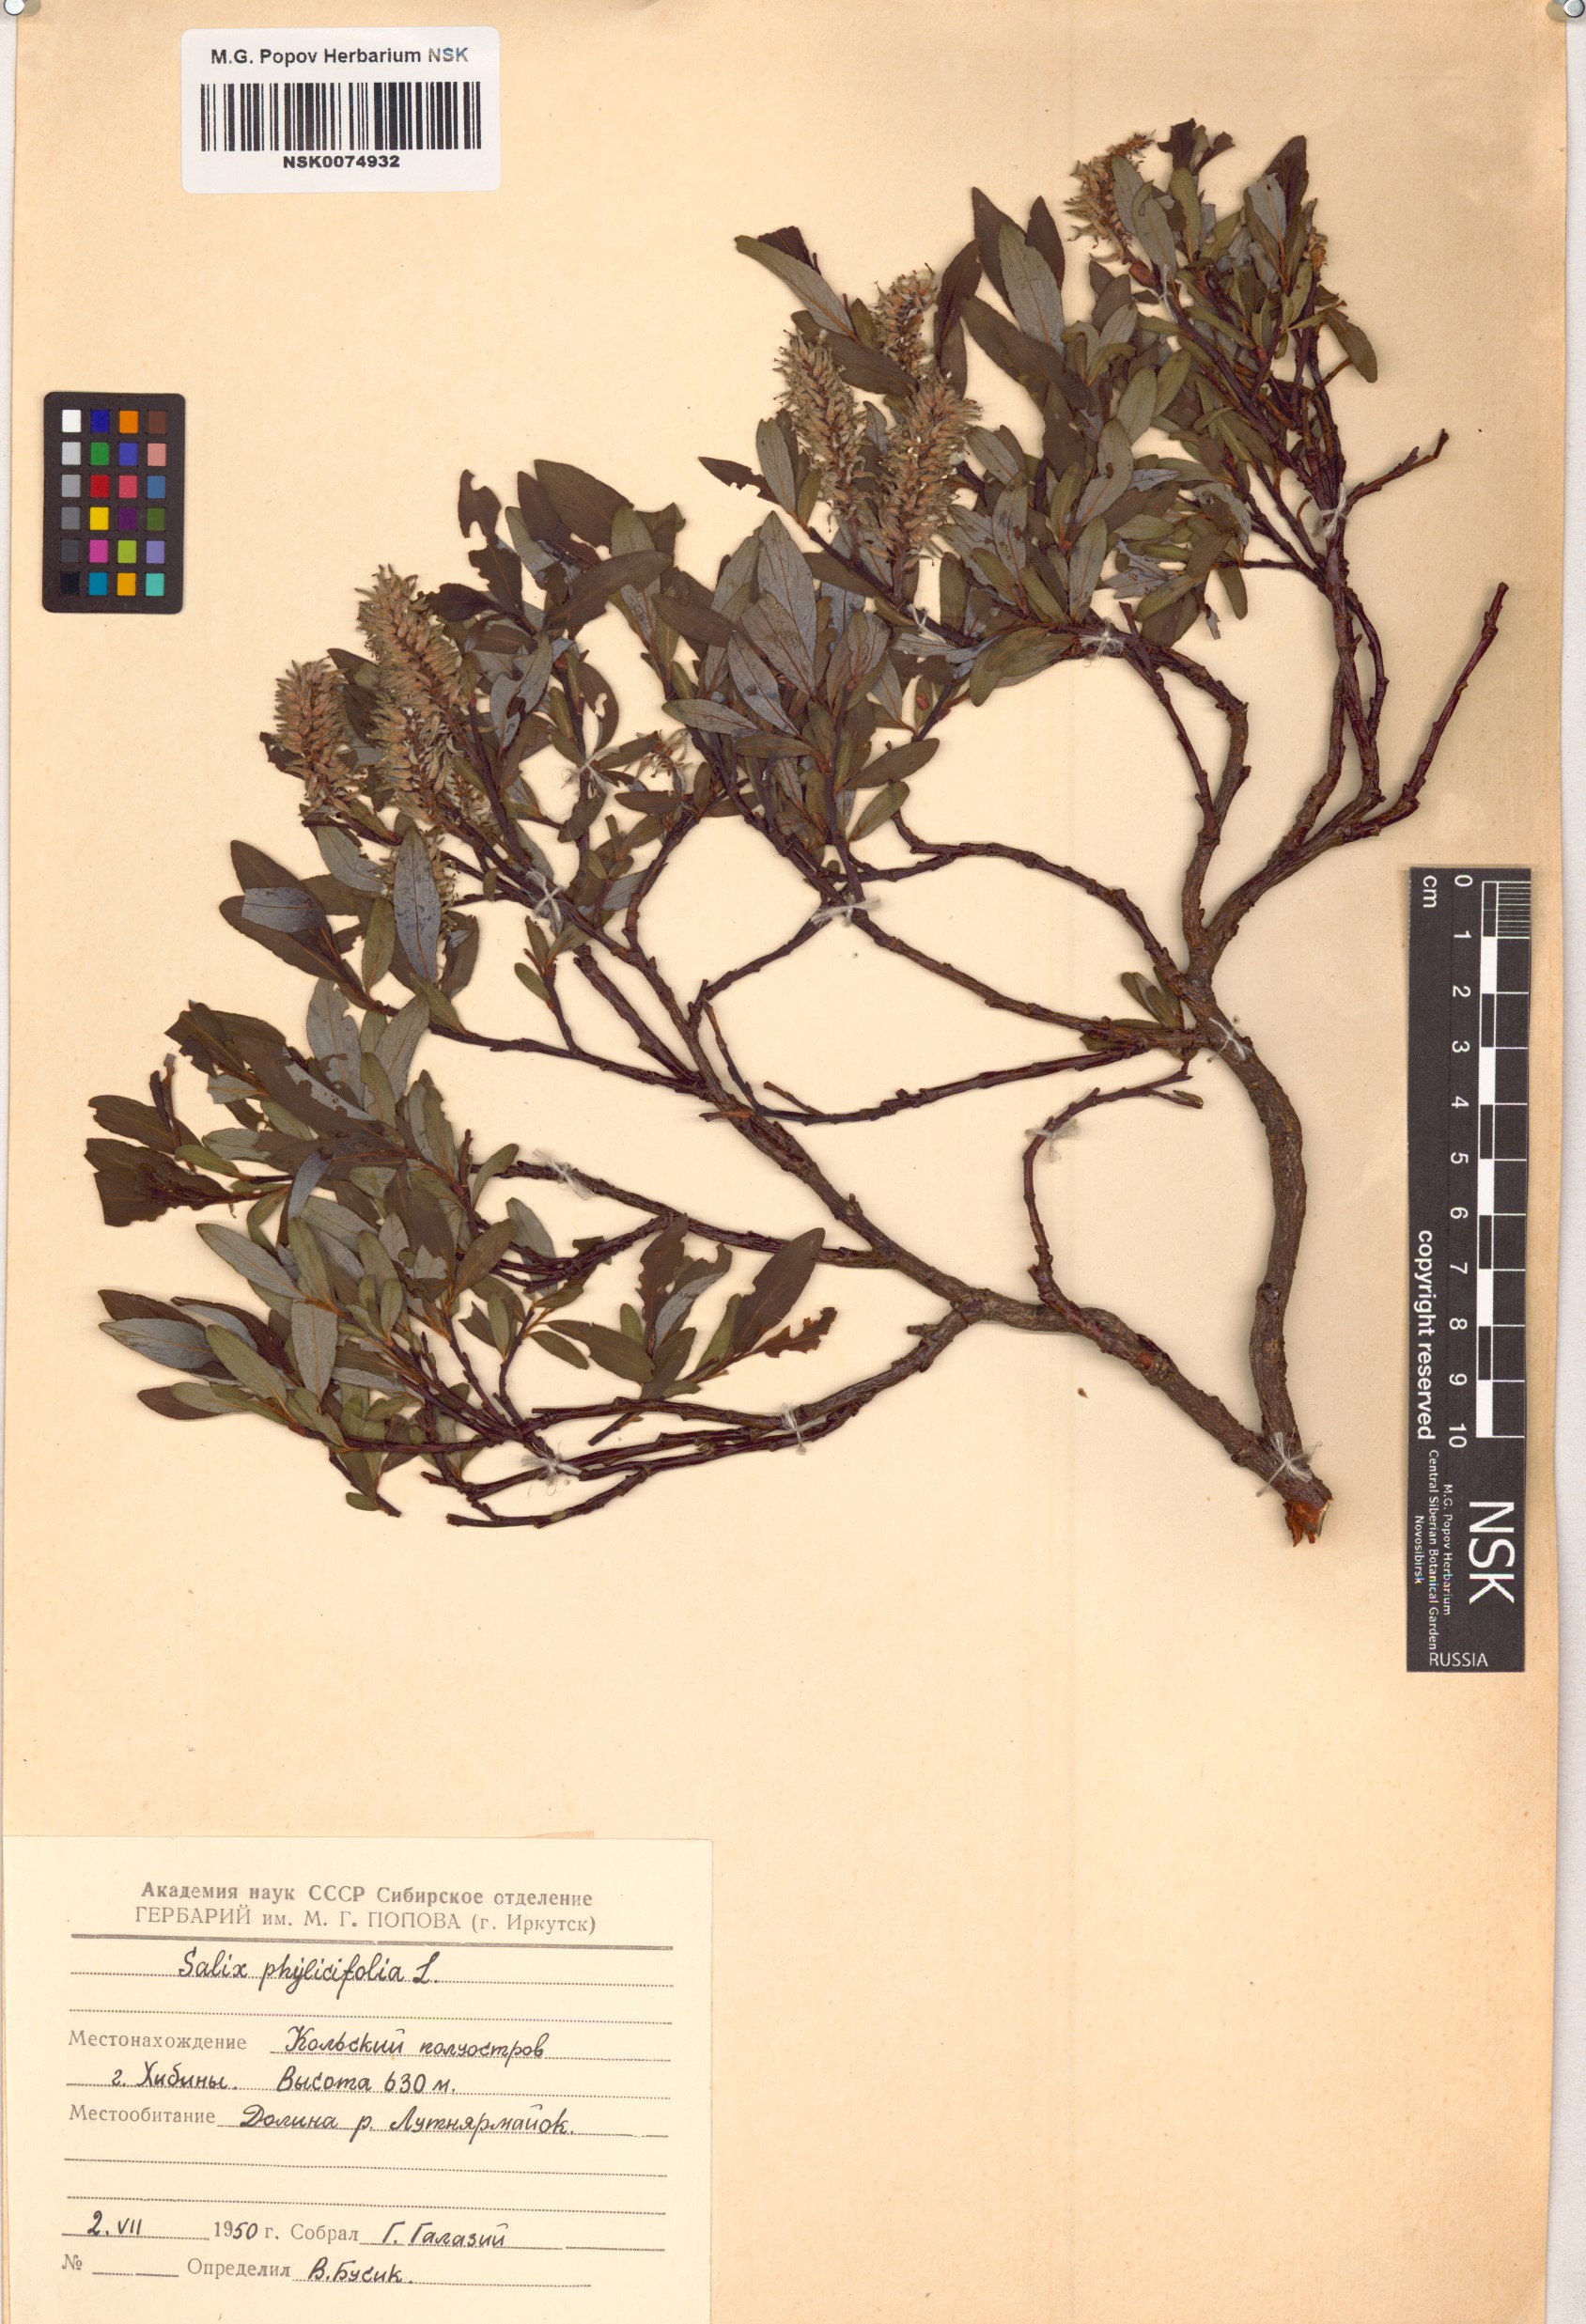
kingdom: Plantae
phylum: Tracheophyta
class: Magnoliopsida
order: Malpighiales
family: Salicaceae
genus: Salix
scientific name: Salix phylicifolia
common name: Tea-leaved willow
